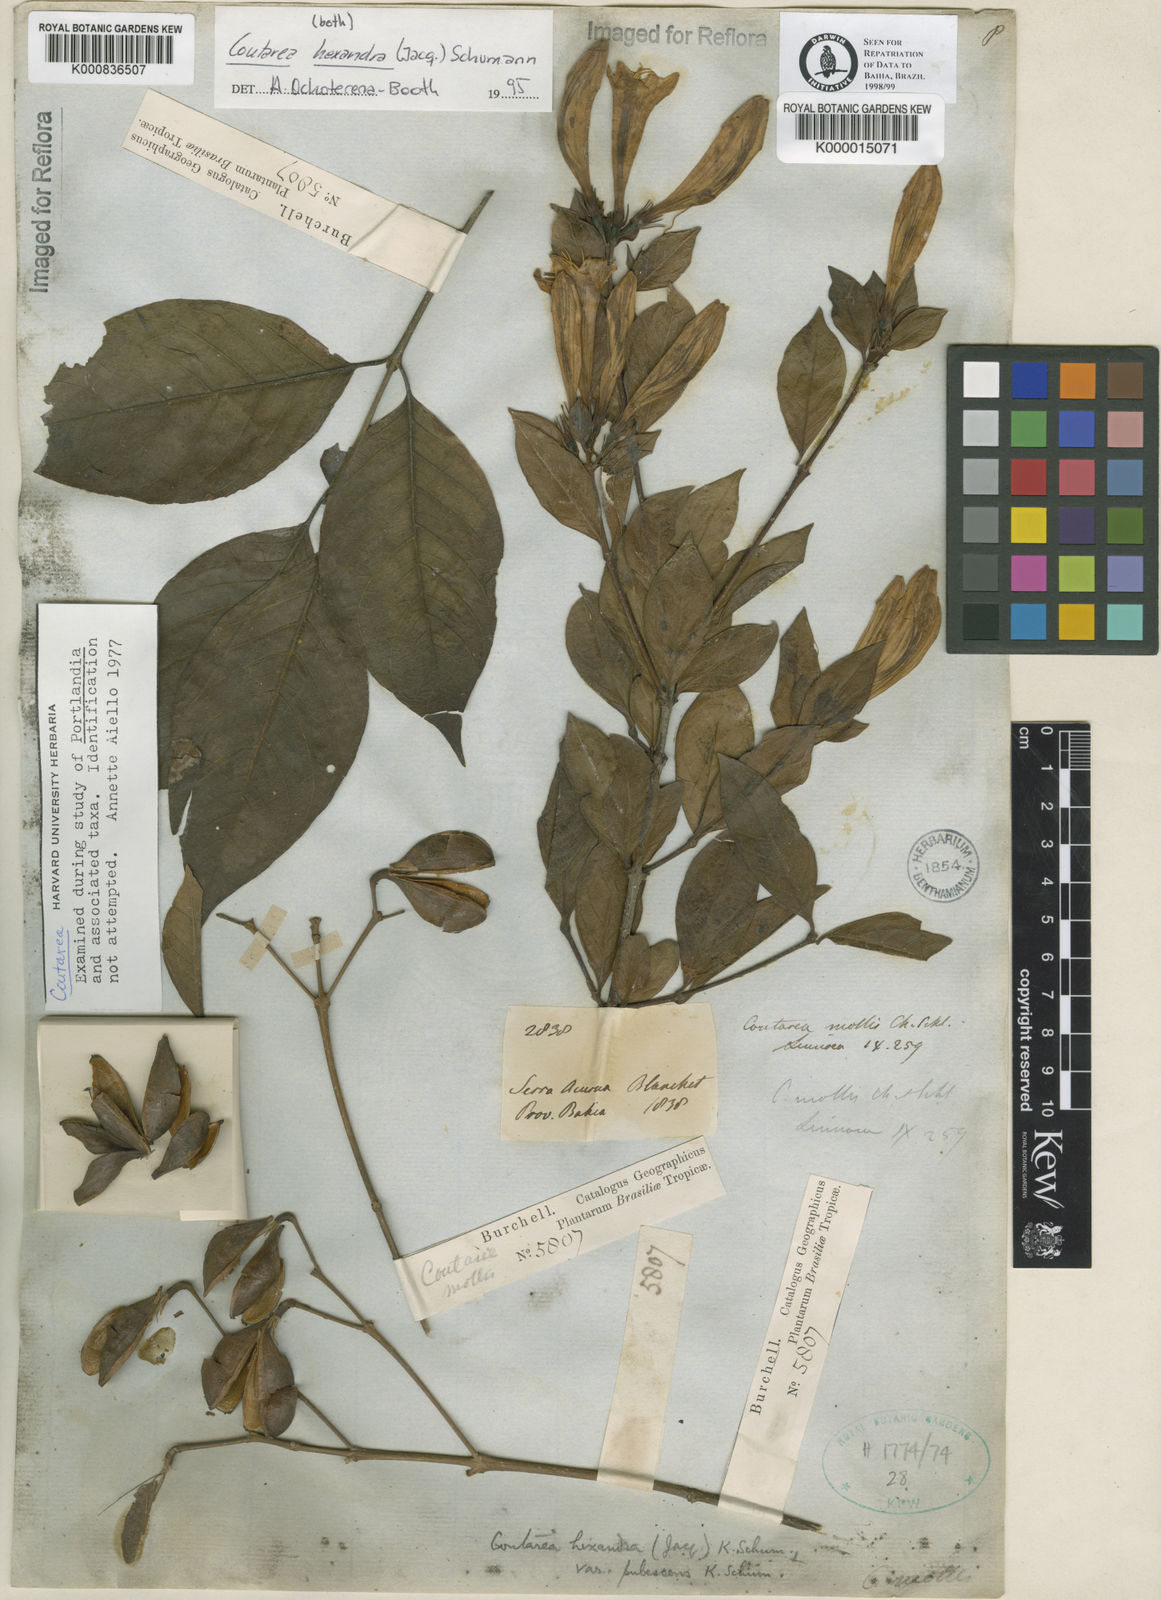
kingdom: Plantae
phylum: Tracheophyta
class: Magnoliopsida
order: Gentianales
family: Rubiaceae
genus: Coutarea
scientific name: Coutarea hexandra
